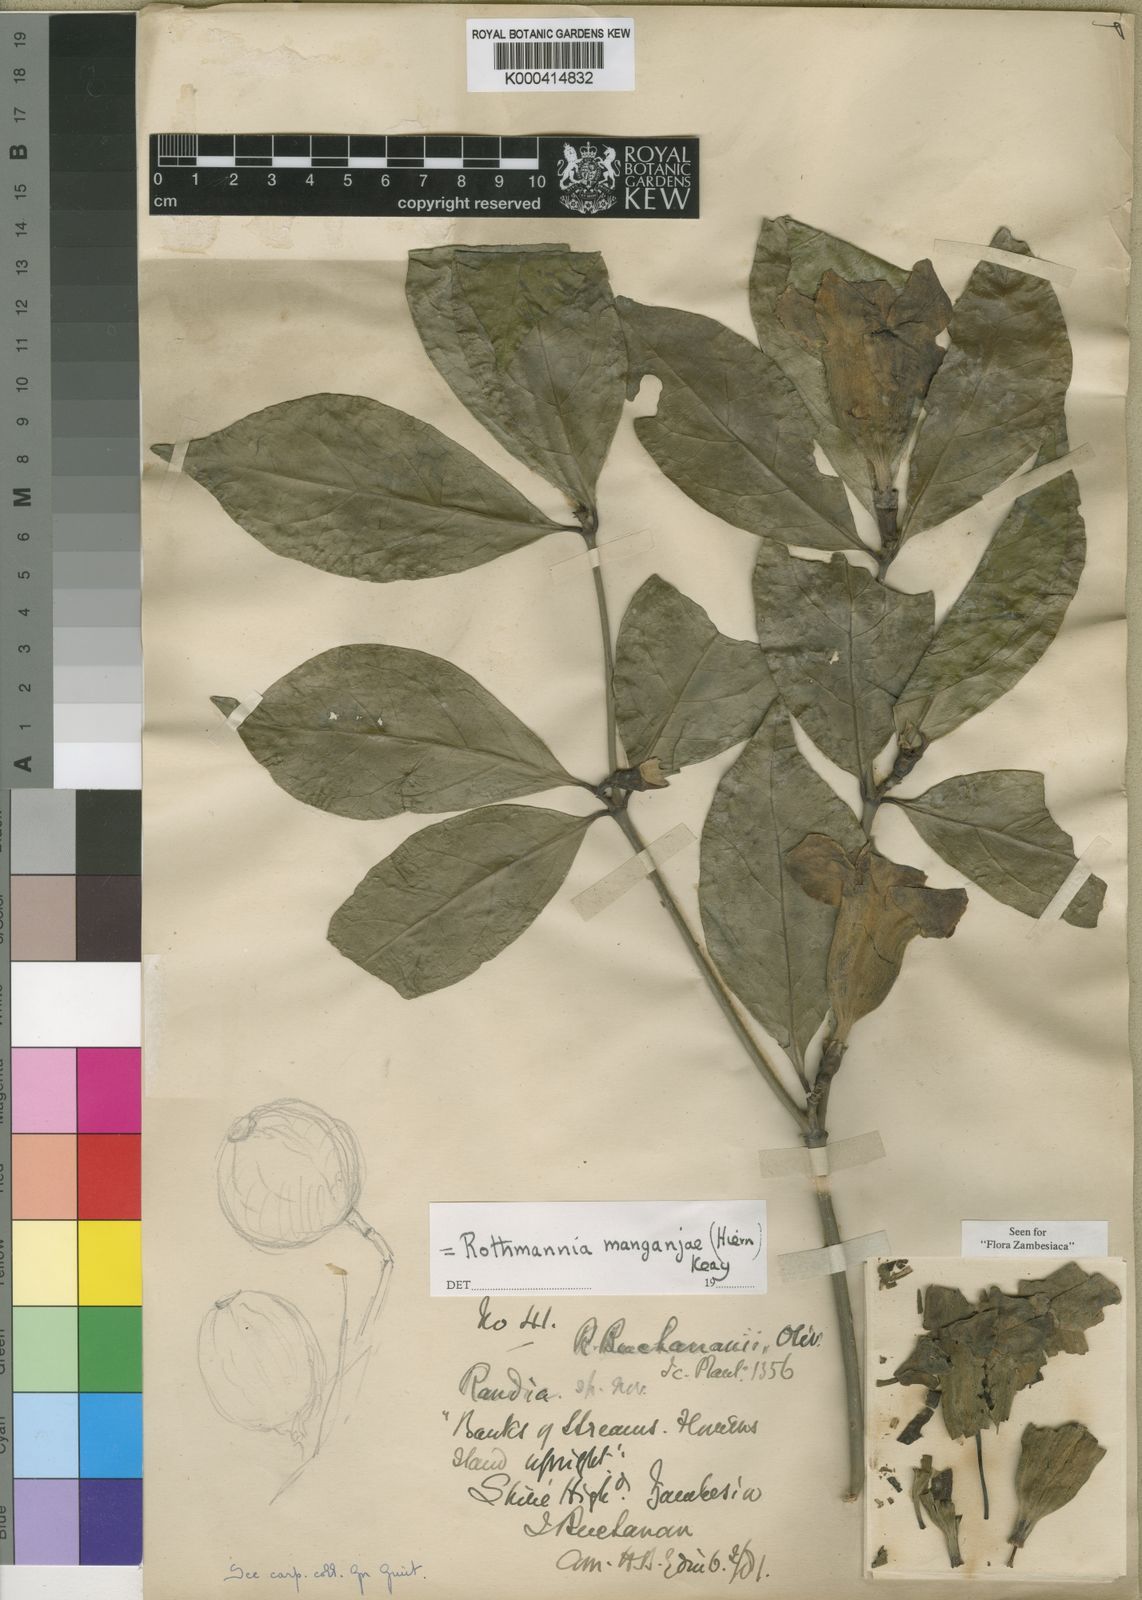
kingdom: Plantae
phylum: Tracheophyta
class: Magnoliopsida
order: Gentianales
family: Rubiaceae
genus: Rothmannia
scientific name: Rothmannia manganjae
